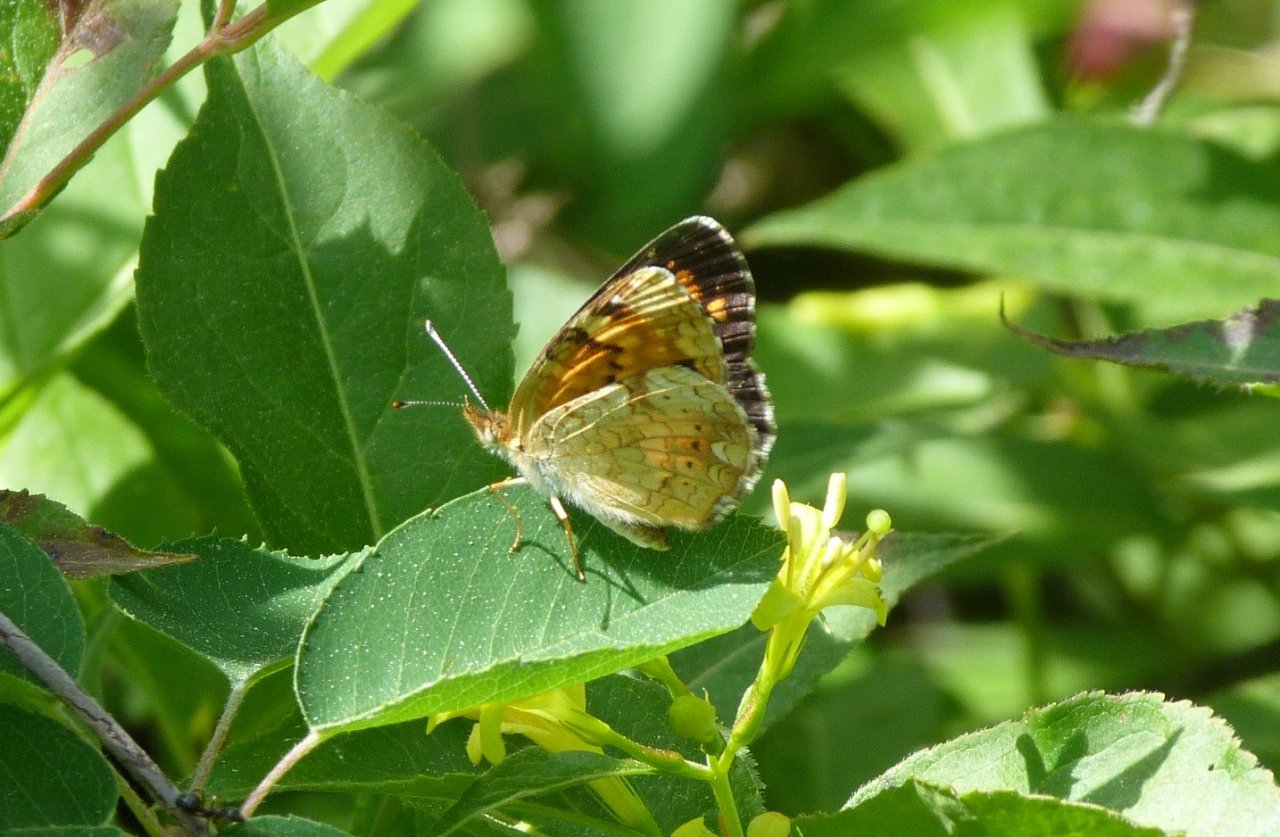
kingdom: Animalia
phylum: Arthropoda
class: Insecta
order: Lepidoptera
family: Nymphalidae
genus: Phyciodes
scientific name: Phyciodes
